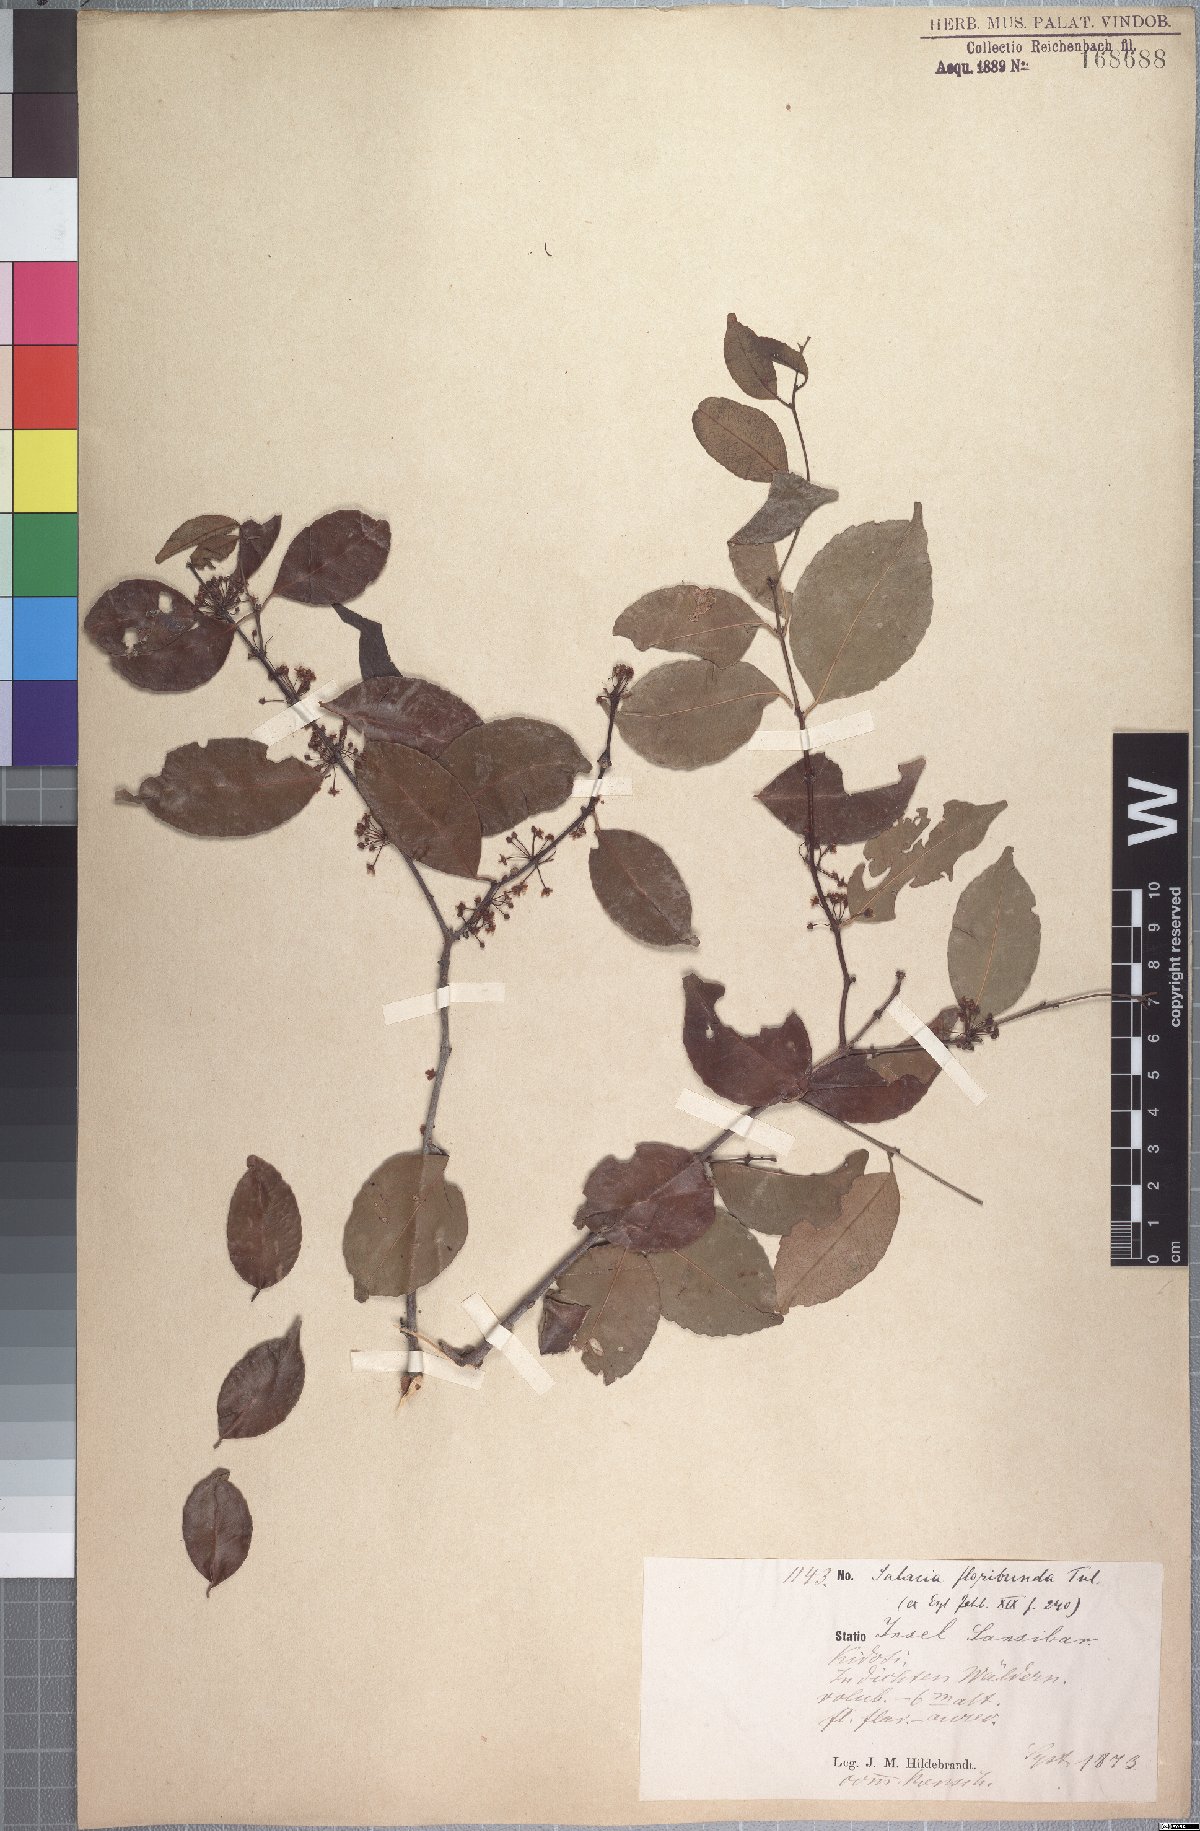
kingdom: Plantae
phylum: Tracheophyta
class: Magnoliopsida
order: Celastrales
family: Celastraceae
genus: Salacia
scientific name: Salacia elegans
